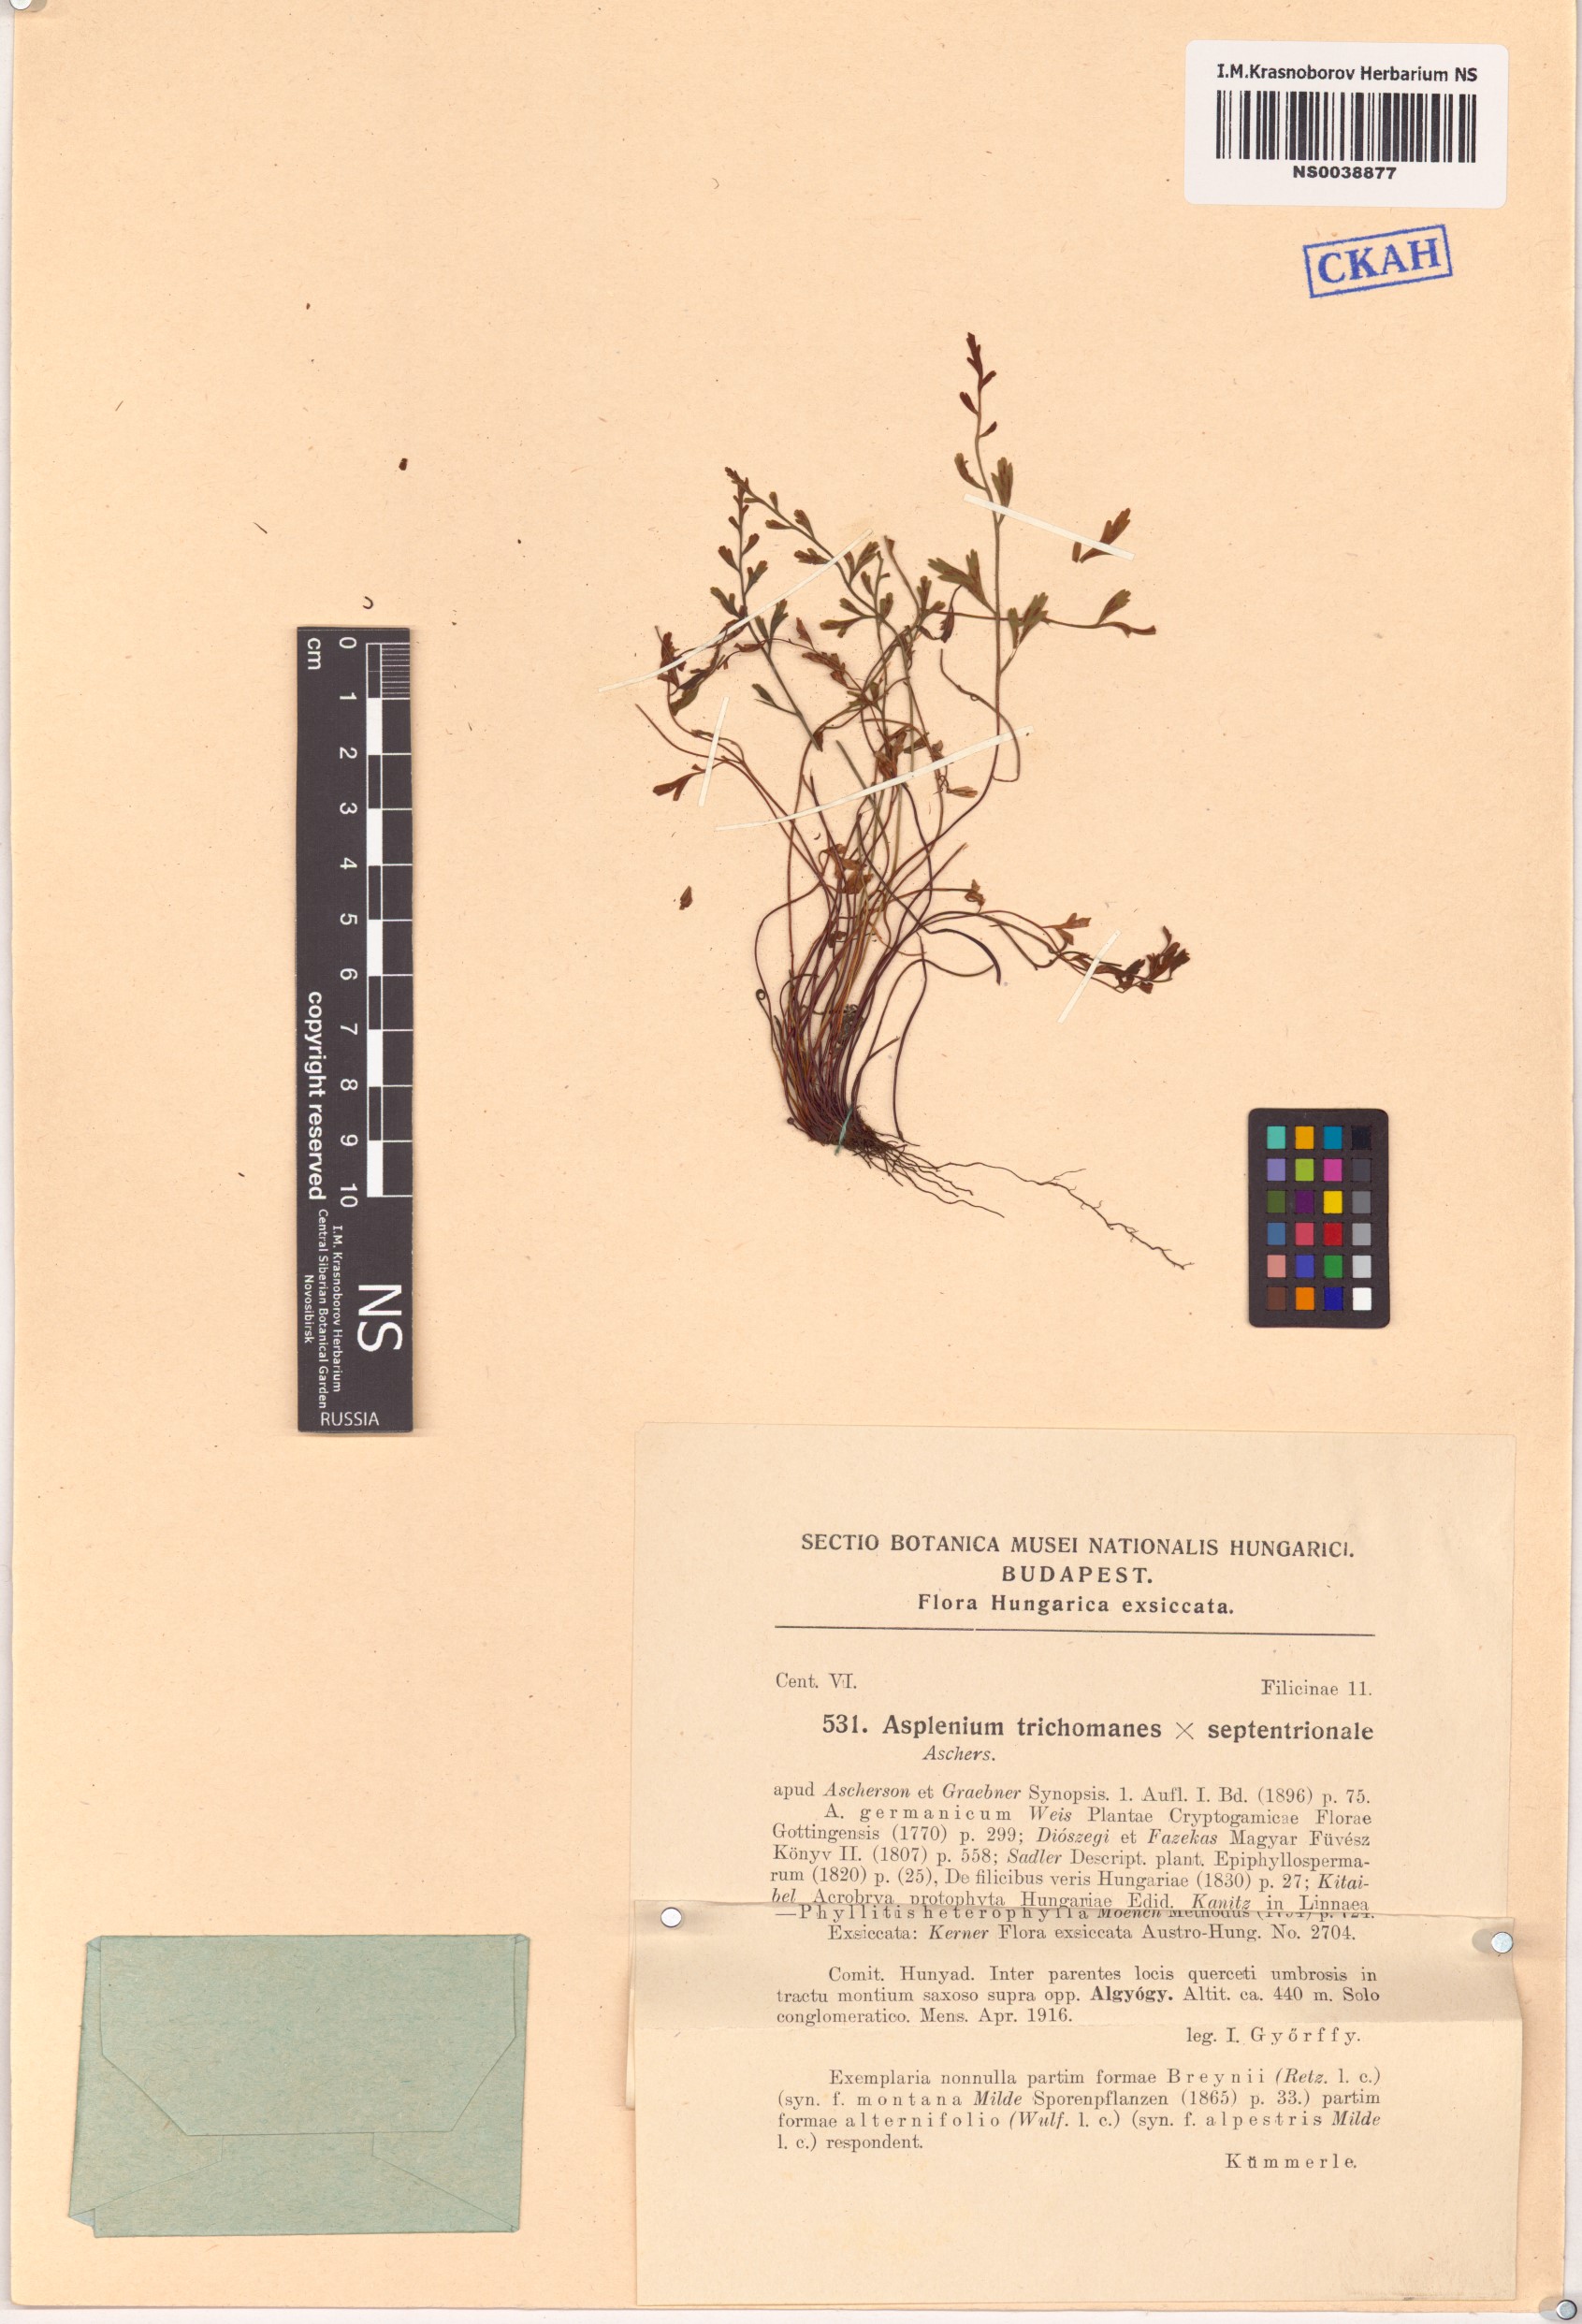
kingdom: Plantae
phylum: Tracheophyta
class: Polypodiopsida
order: Polypodiales
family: Aspleniaceae
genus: Asplenium
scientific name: Asplenium trichomanes
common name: Maidenhair spleenwort
